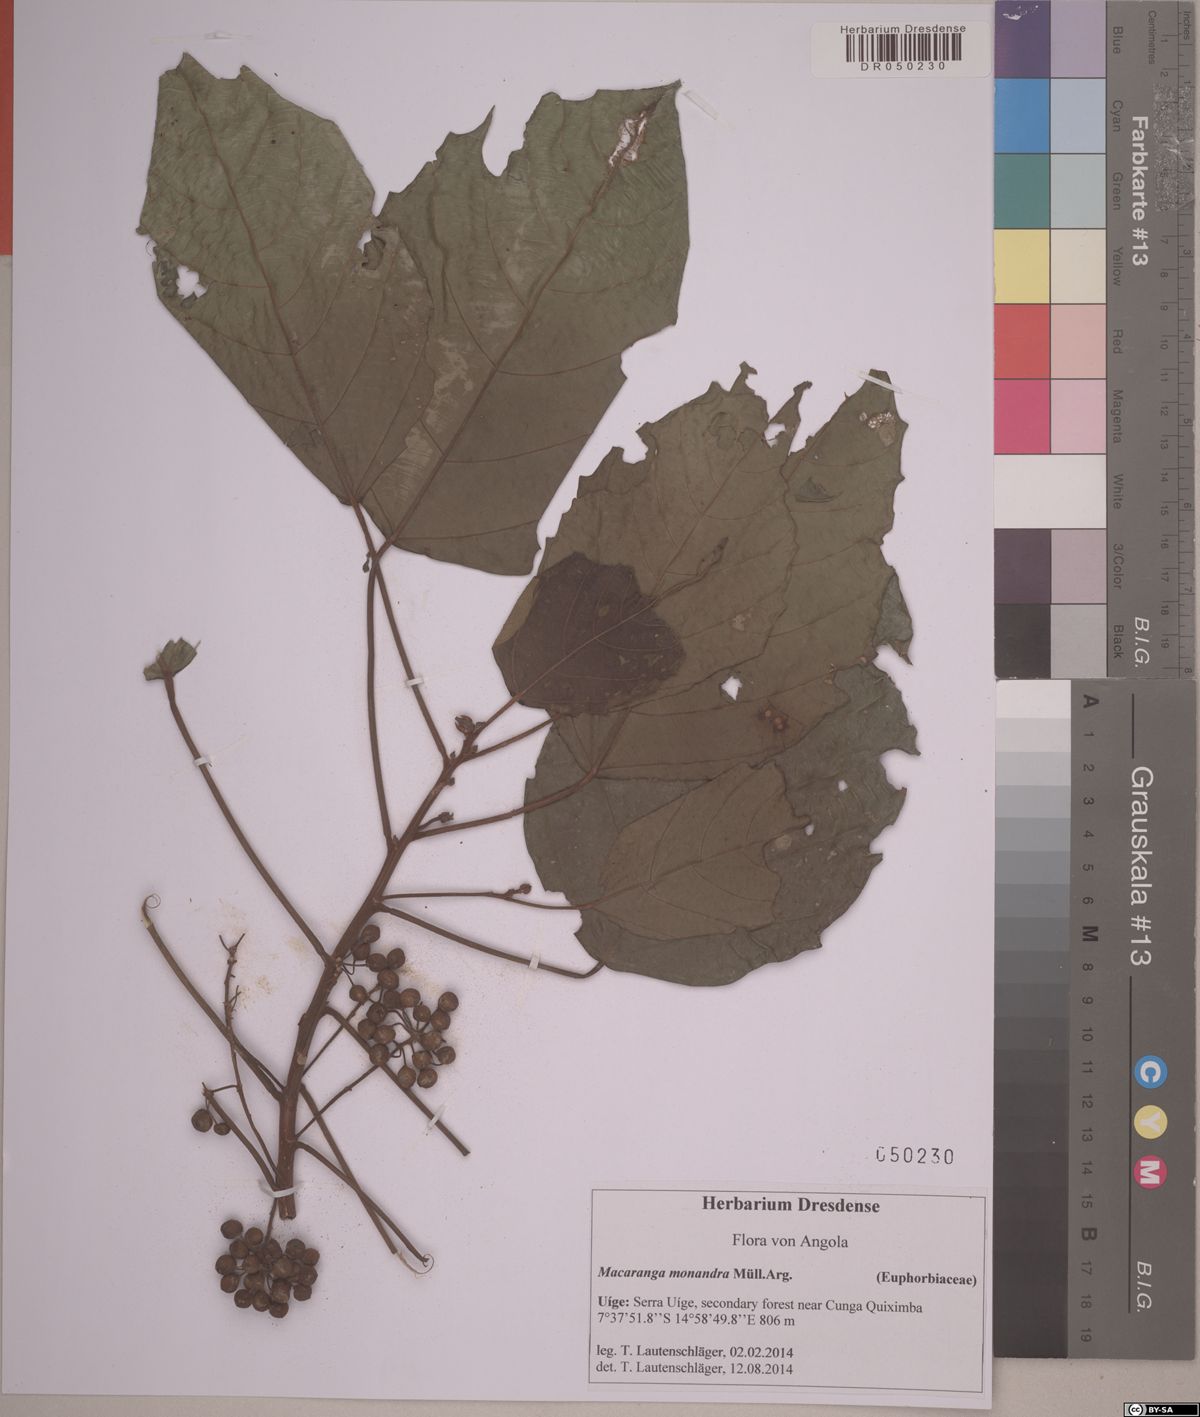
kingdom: Plantae
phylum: Tracheophyta
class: Magnoliopsida
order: Malpighiales
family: Euphorbiaceae
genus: Macaranga
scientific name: Macaranga monandra
